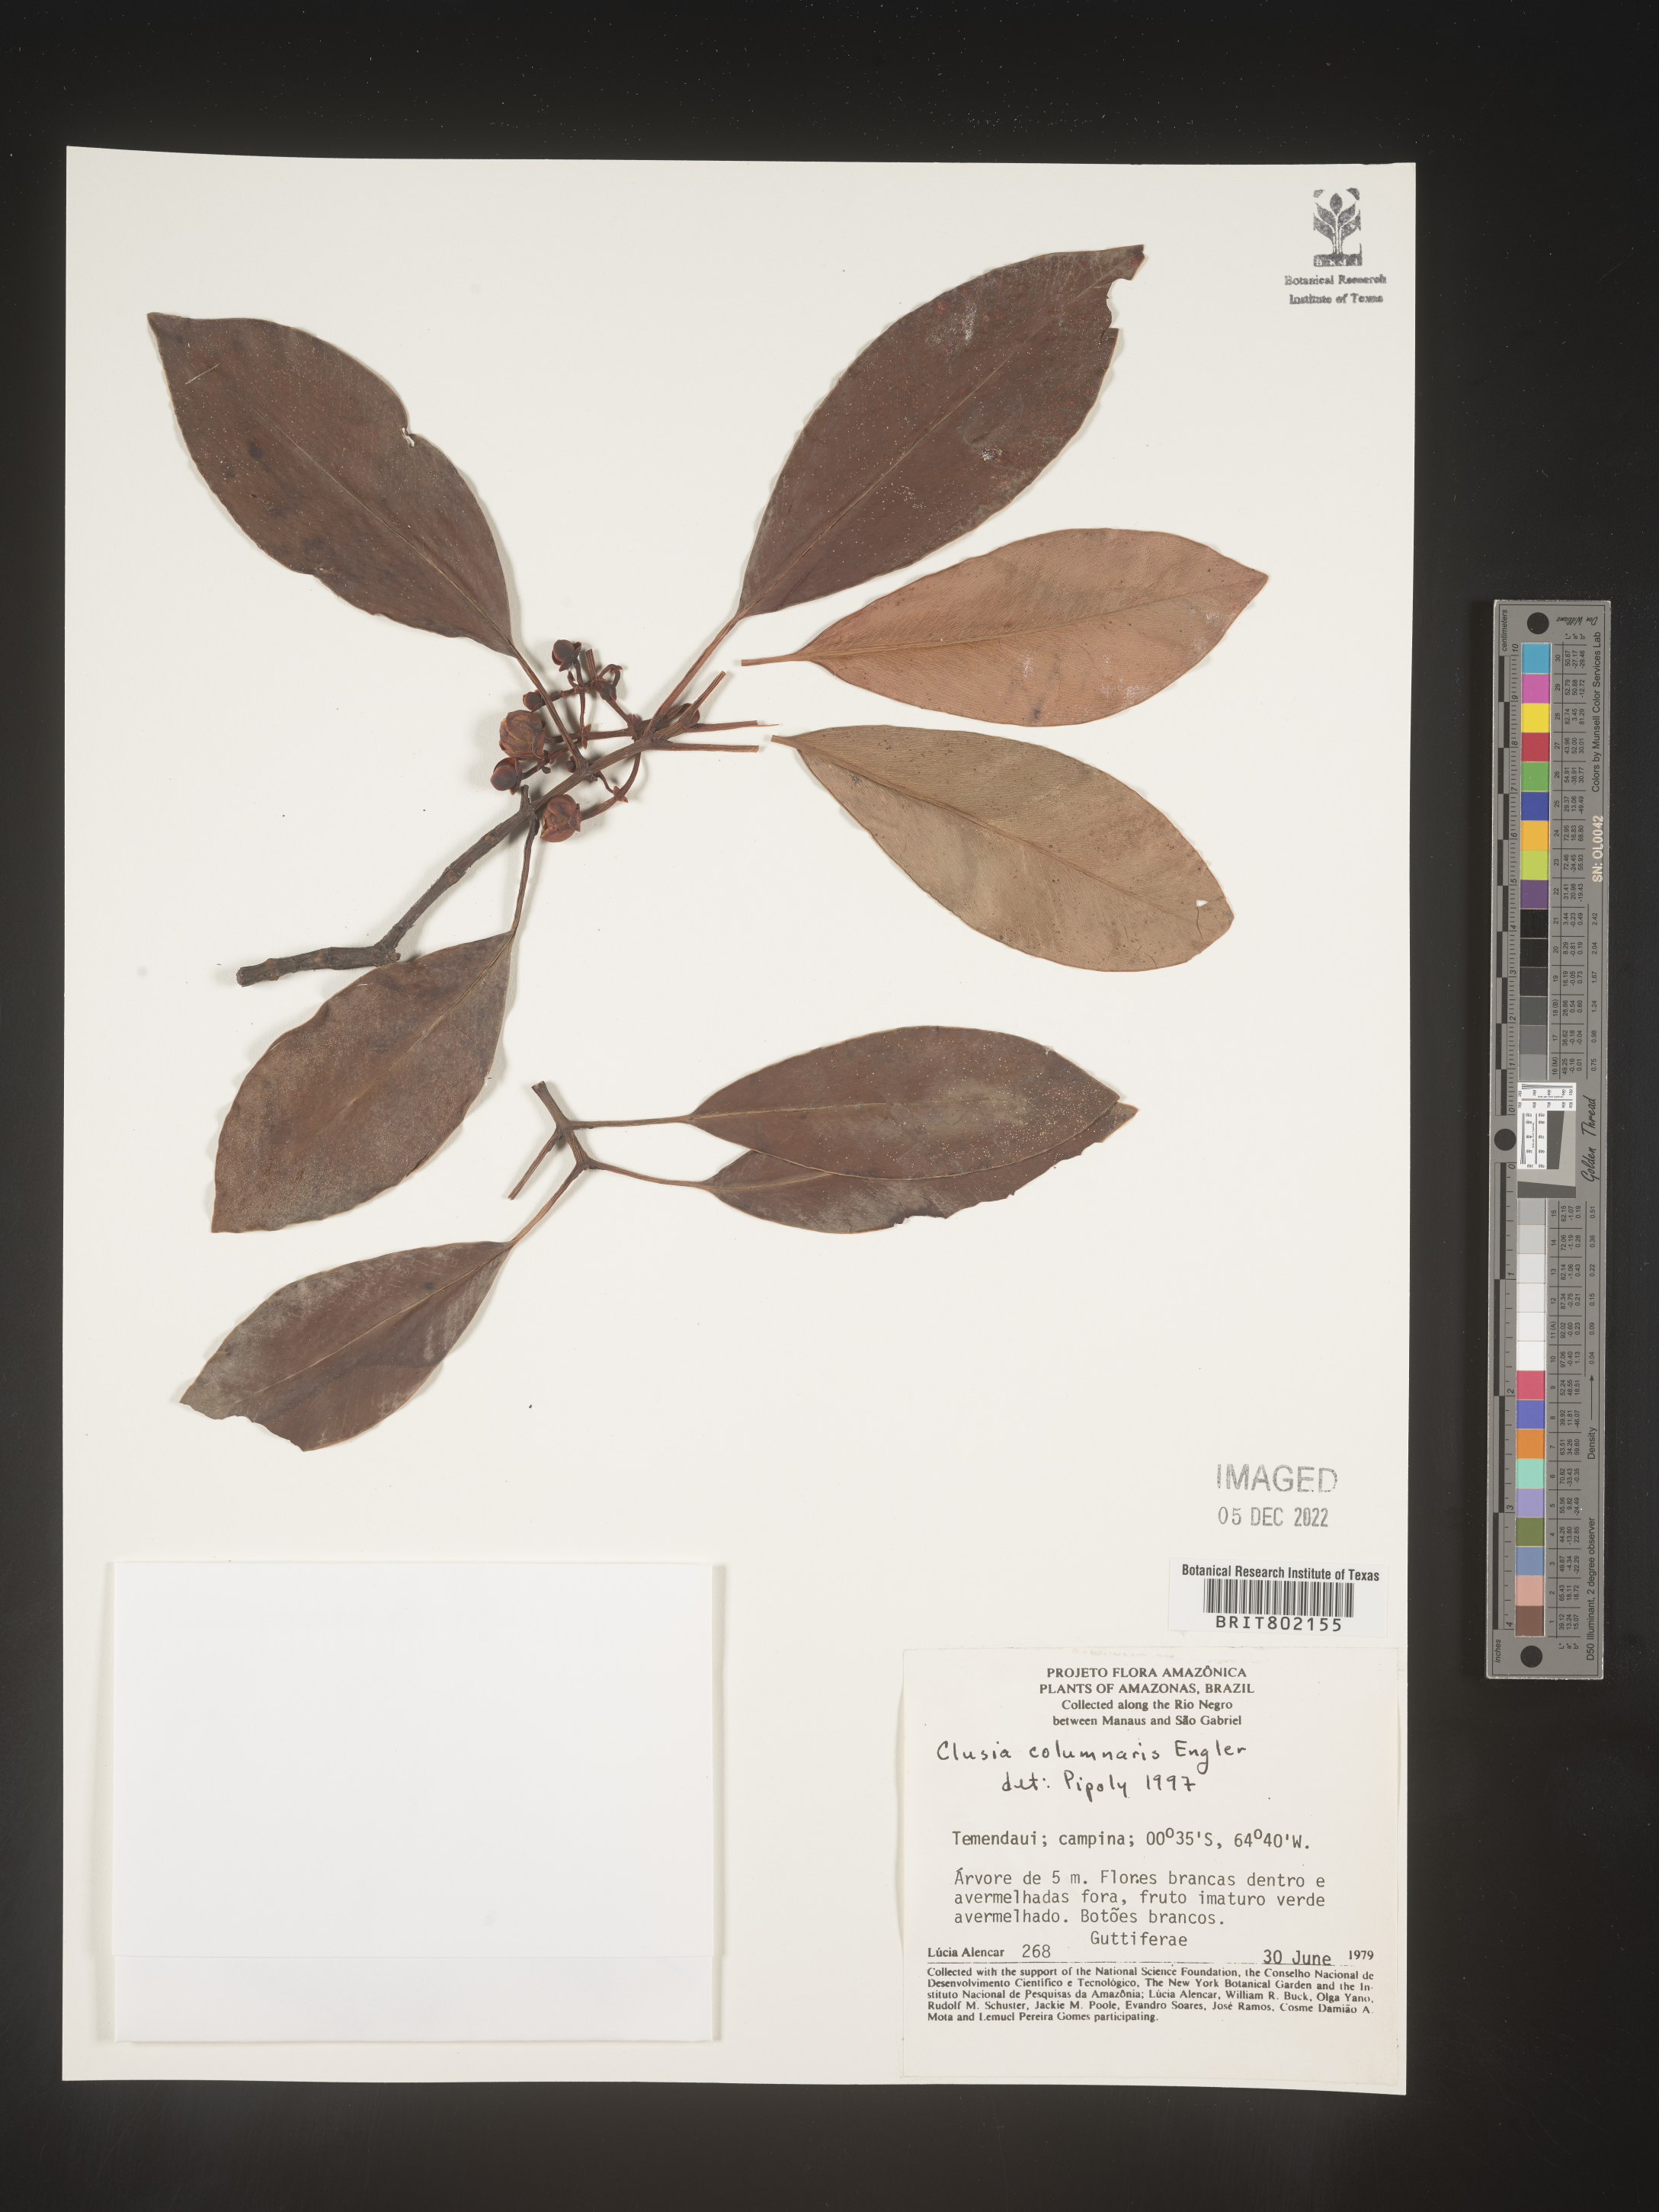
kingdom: Plantae
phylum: Tracheophyta
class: Magnoliopsida
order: Malpighiales
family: Clusiaceae
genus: Clusia
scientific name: Clusia columnaris
